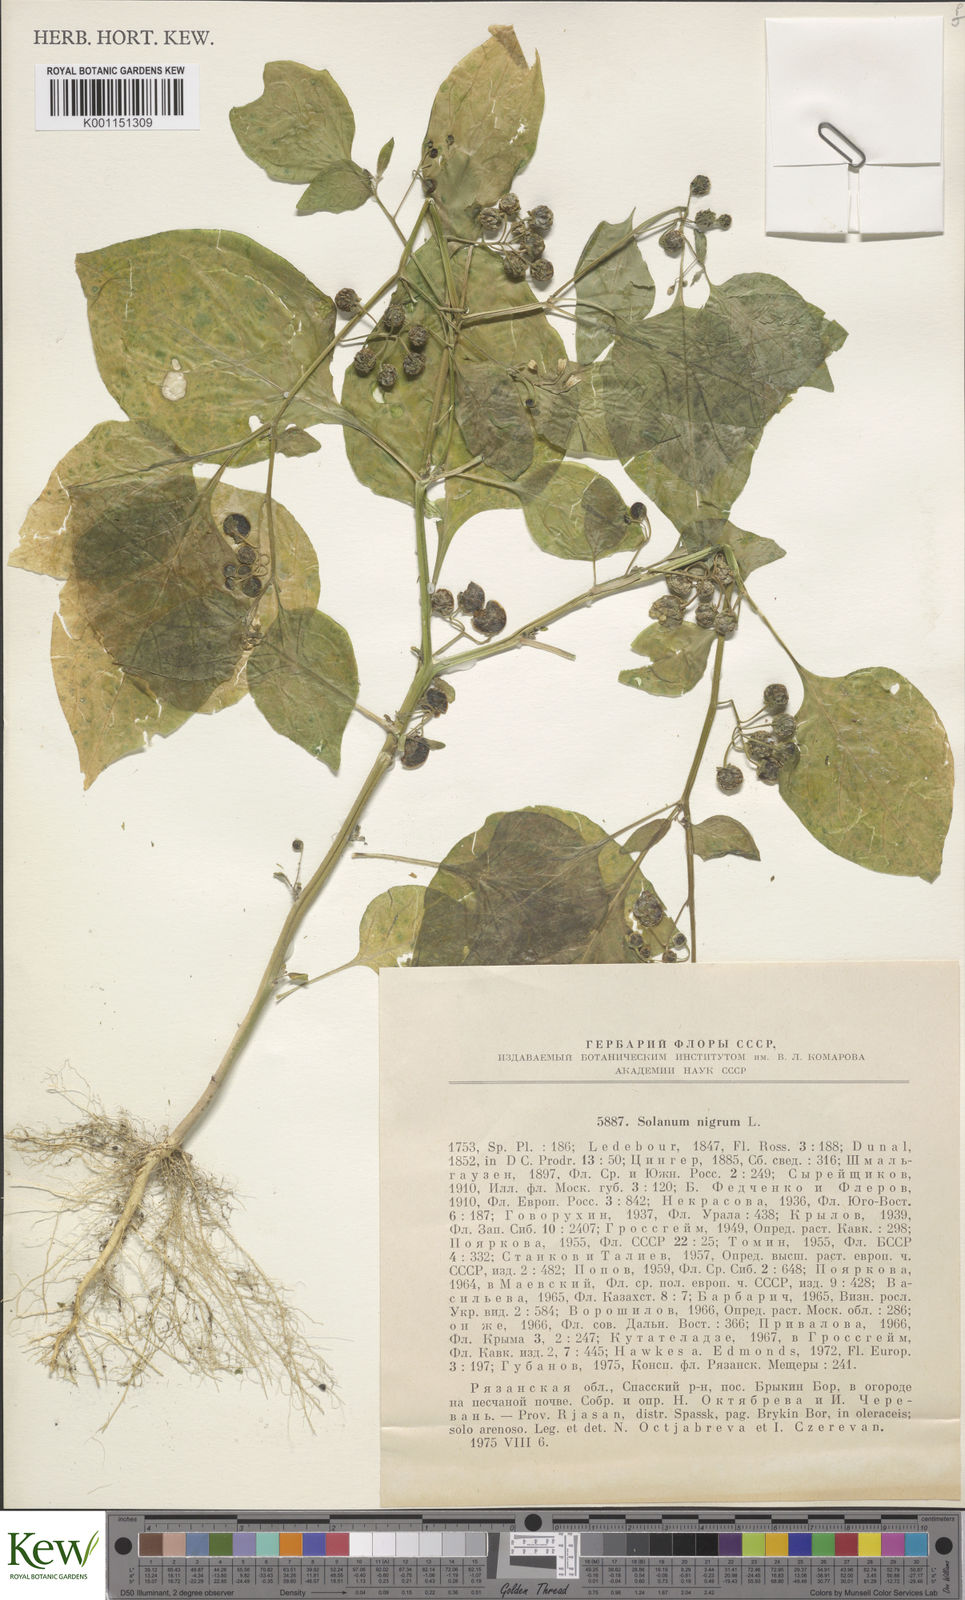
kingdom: Plantae
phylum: Tracheophyta
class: Magnoliopsida
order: Solanales
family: Solanaceae
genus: Solanum
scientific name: Solanum nigrum
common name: Black nightshade
